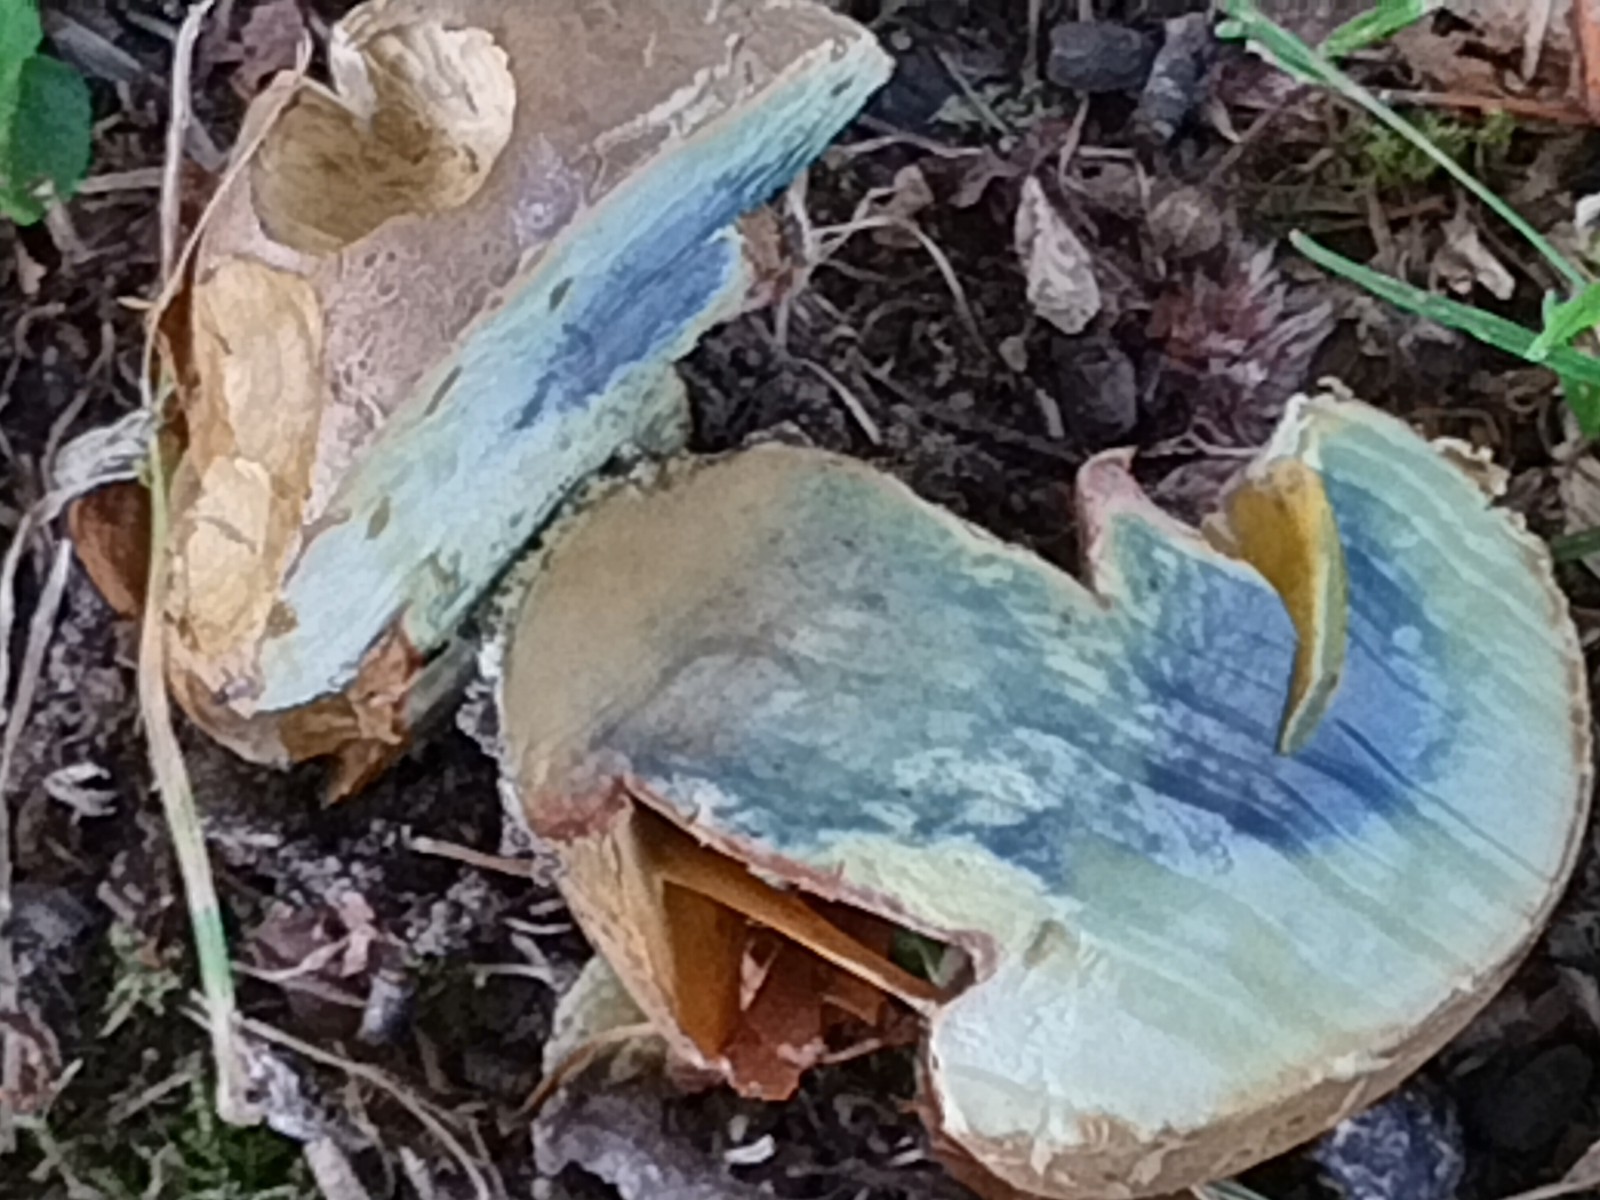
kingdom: Fungi
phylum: Basidiomycota
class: Agaricomycetes
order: Boletales
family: Boletaceae
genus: Caloboletus
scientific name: Caloboletus radicans
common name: rod-rørhat
